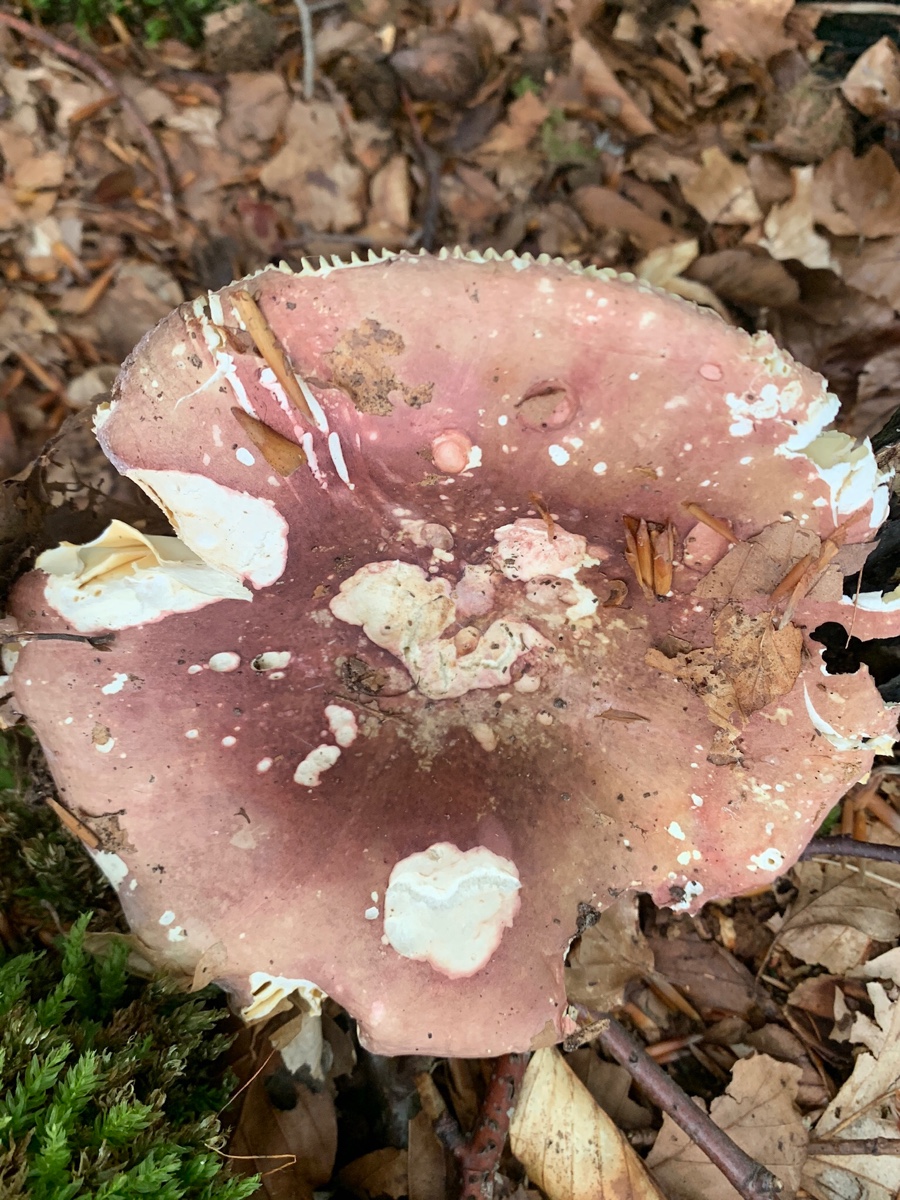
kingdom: Fungi
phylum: Basidiomycota
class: Agaricomycetes
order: Russulales
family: Russulaceae
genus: Russula
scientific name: Russula olivacea
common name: stor skørhat
